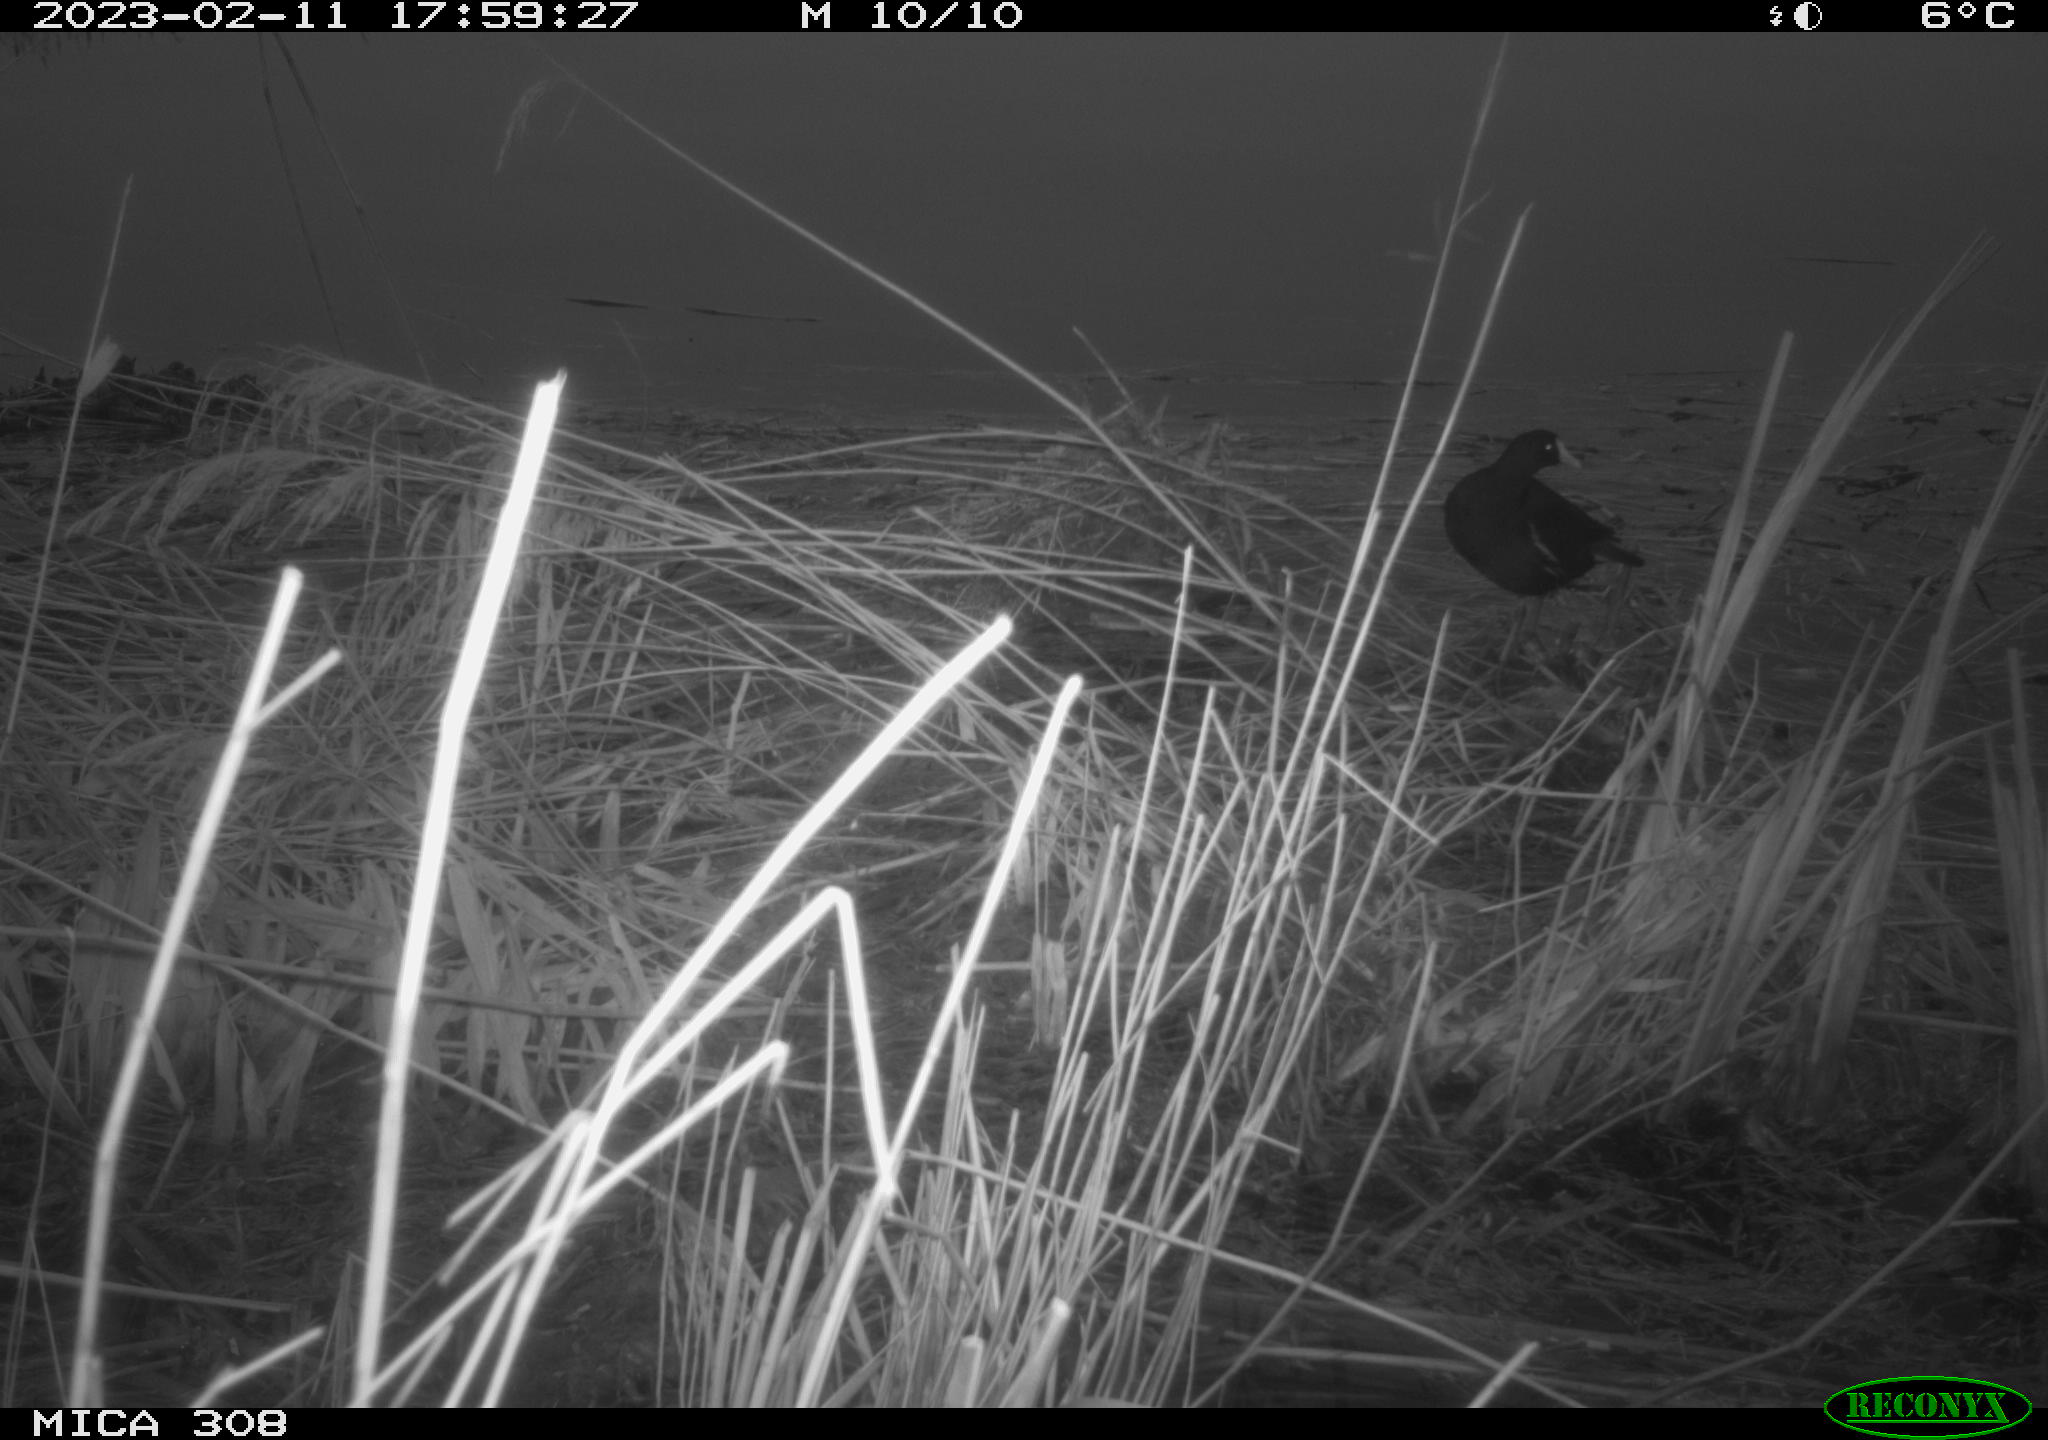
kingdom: Animalia
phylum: Chordata
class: Aves
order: Gruiformes
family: Rallidae
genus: Gallinula
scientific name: Gallinula chloropus
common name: Common moorhen
